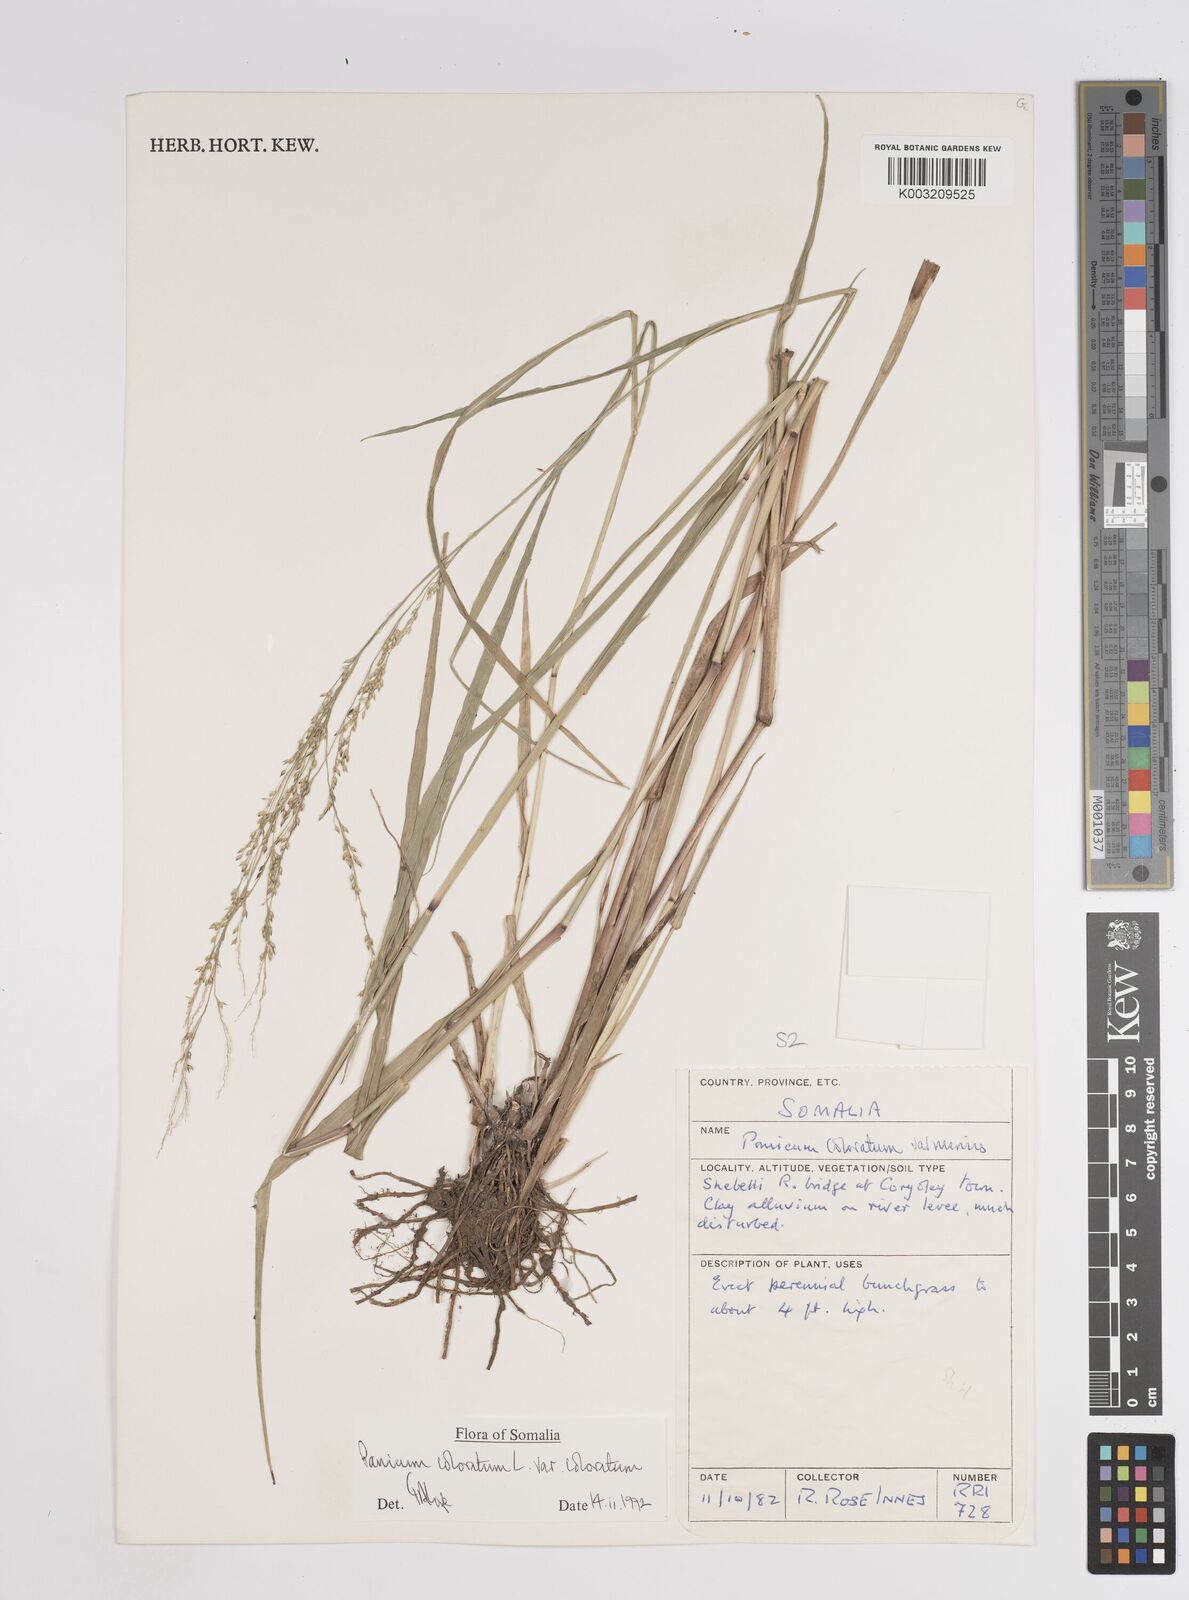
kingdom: Plantae
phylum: Tracheophyta
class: Liliopsida
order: Poales
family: Poaceae
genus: Panicum
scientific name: Panicum coloratum
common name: Kleingrass
